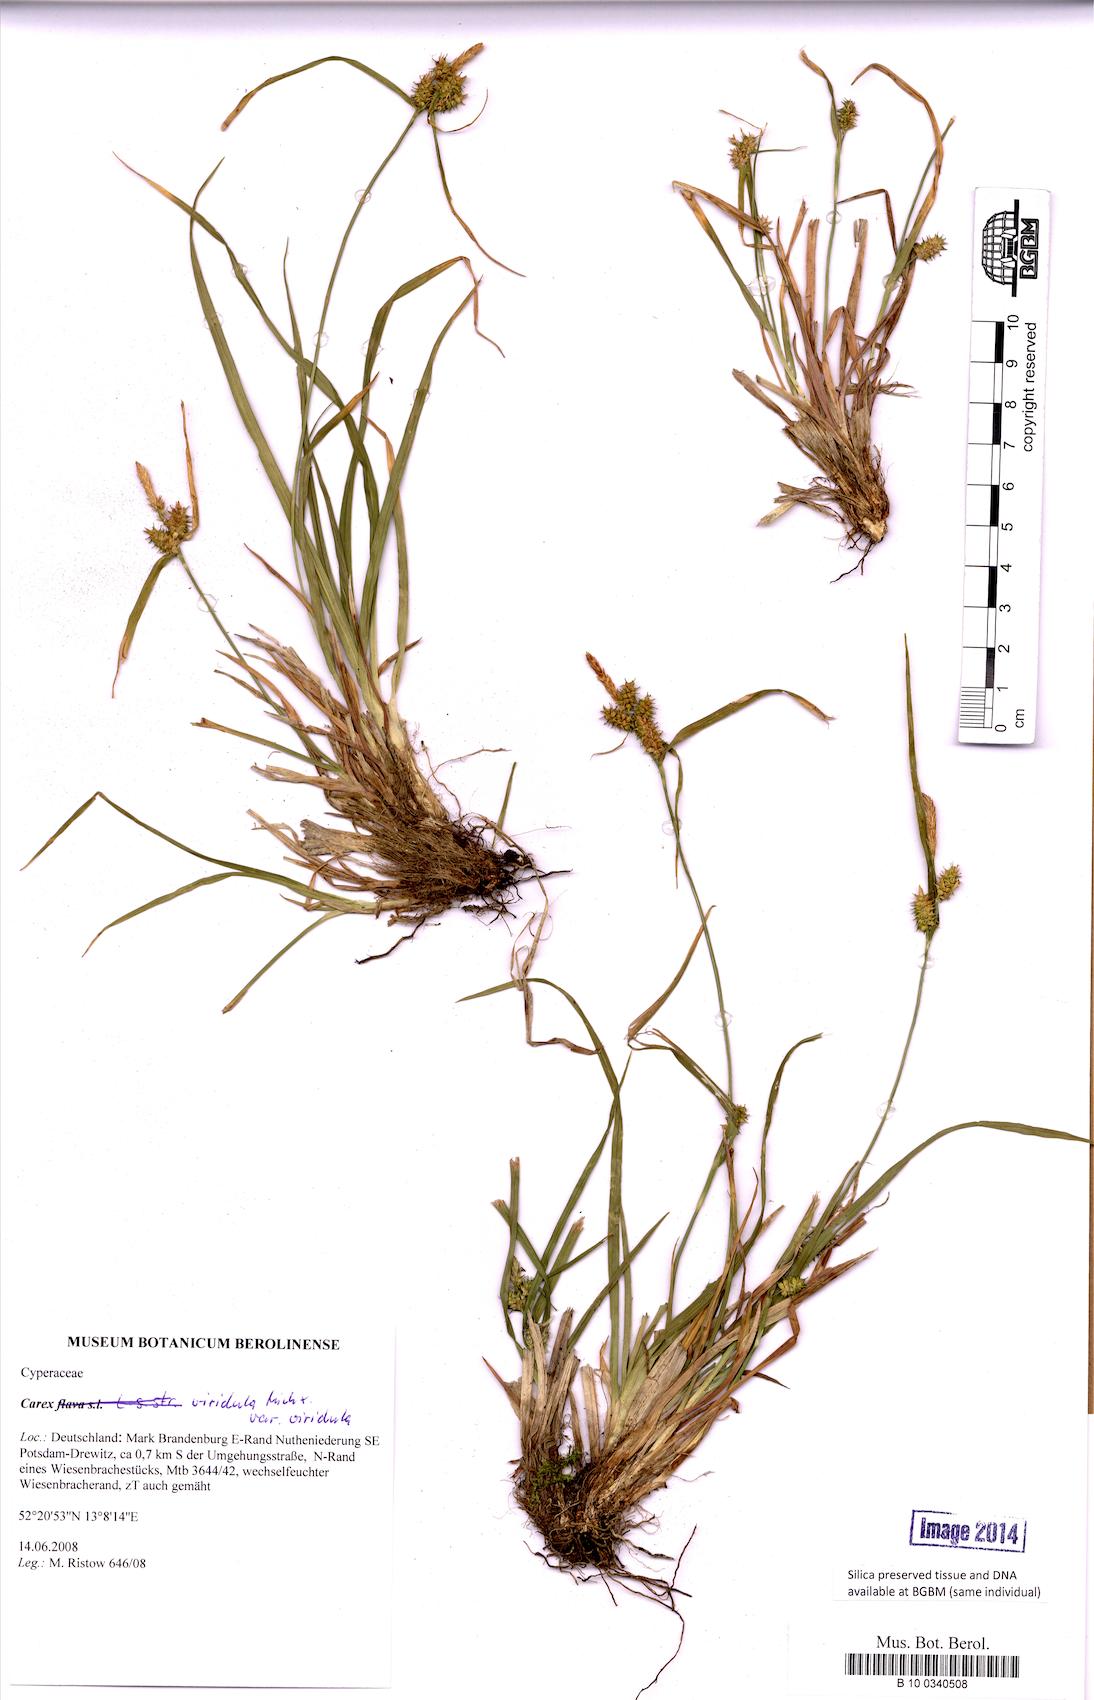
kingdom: Plantae
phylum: Tracheophyta
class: Liliopsida
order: Poales
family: Cyperaceae
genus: Carex
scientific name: Carex
